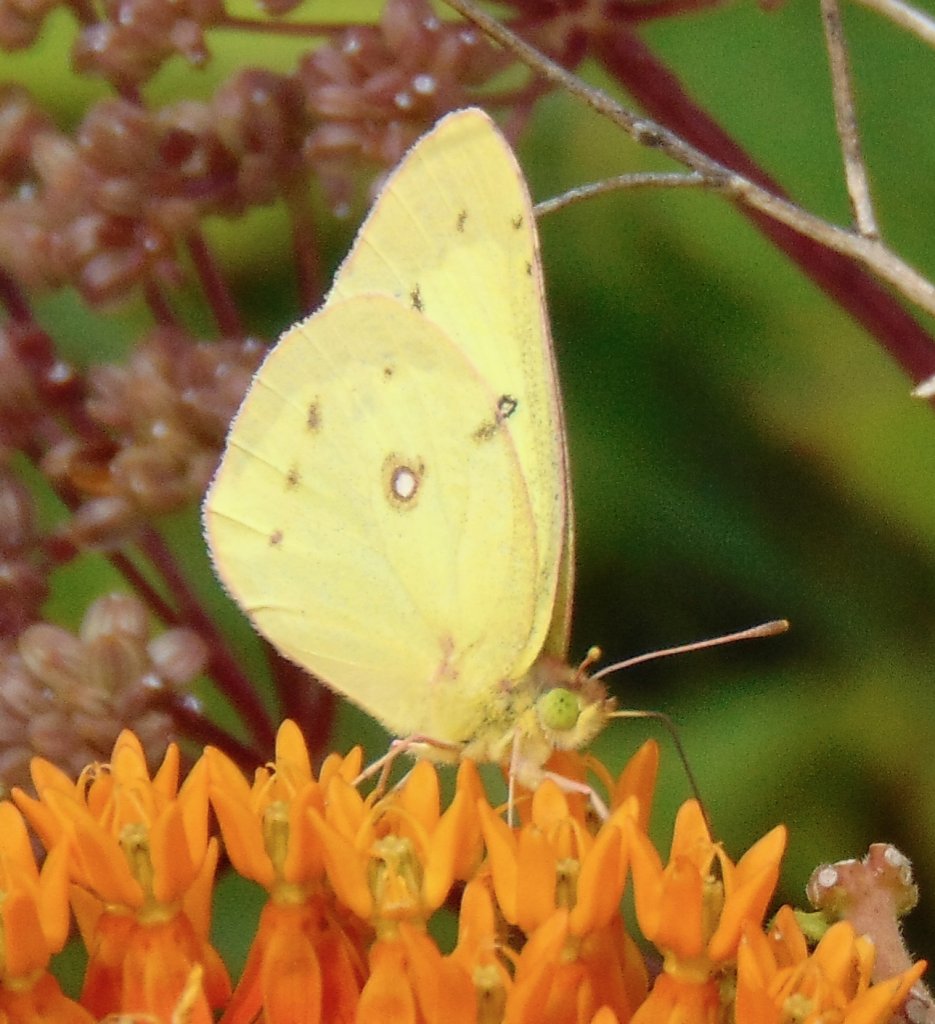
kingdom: Animalia
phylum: Arthropoda
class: Insecta
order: Lepidoptera
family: Pieridae
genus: Colias
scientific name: Colias philodice
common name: Clouded Sulphur
